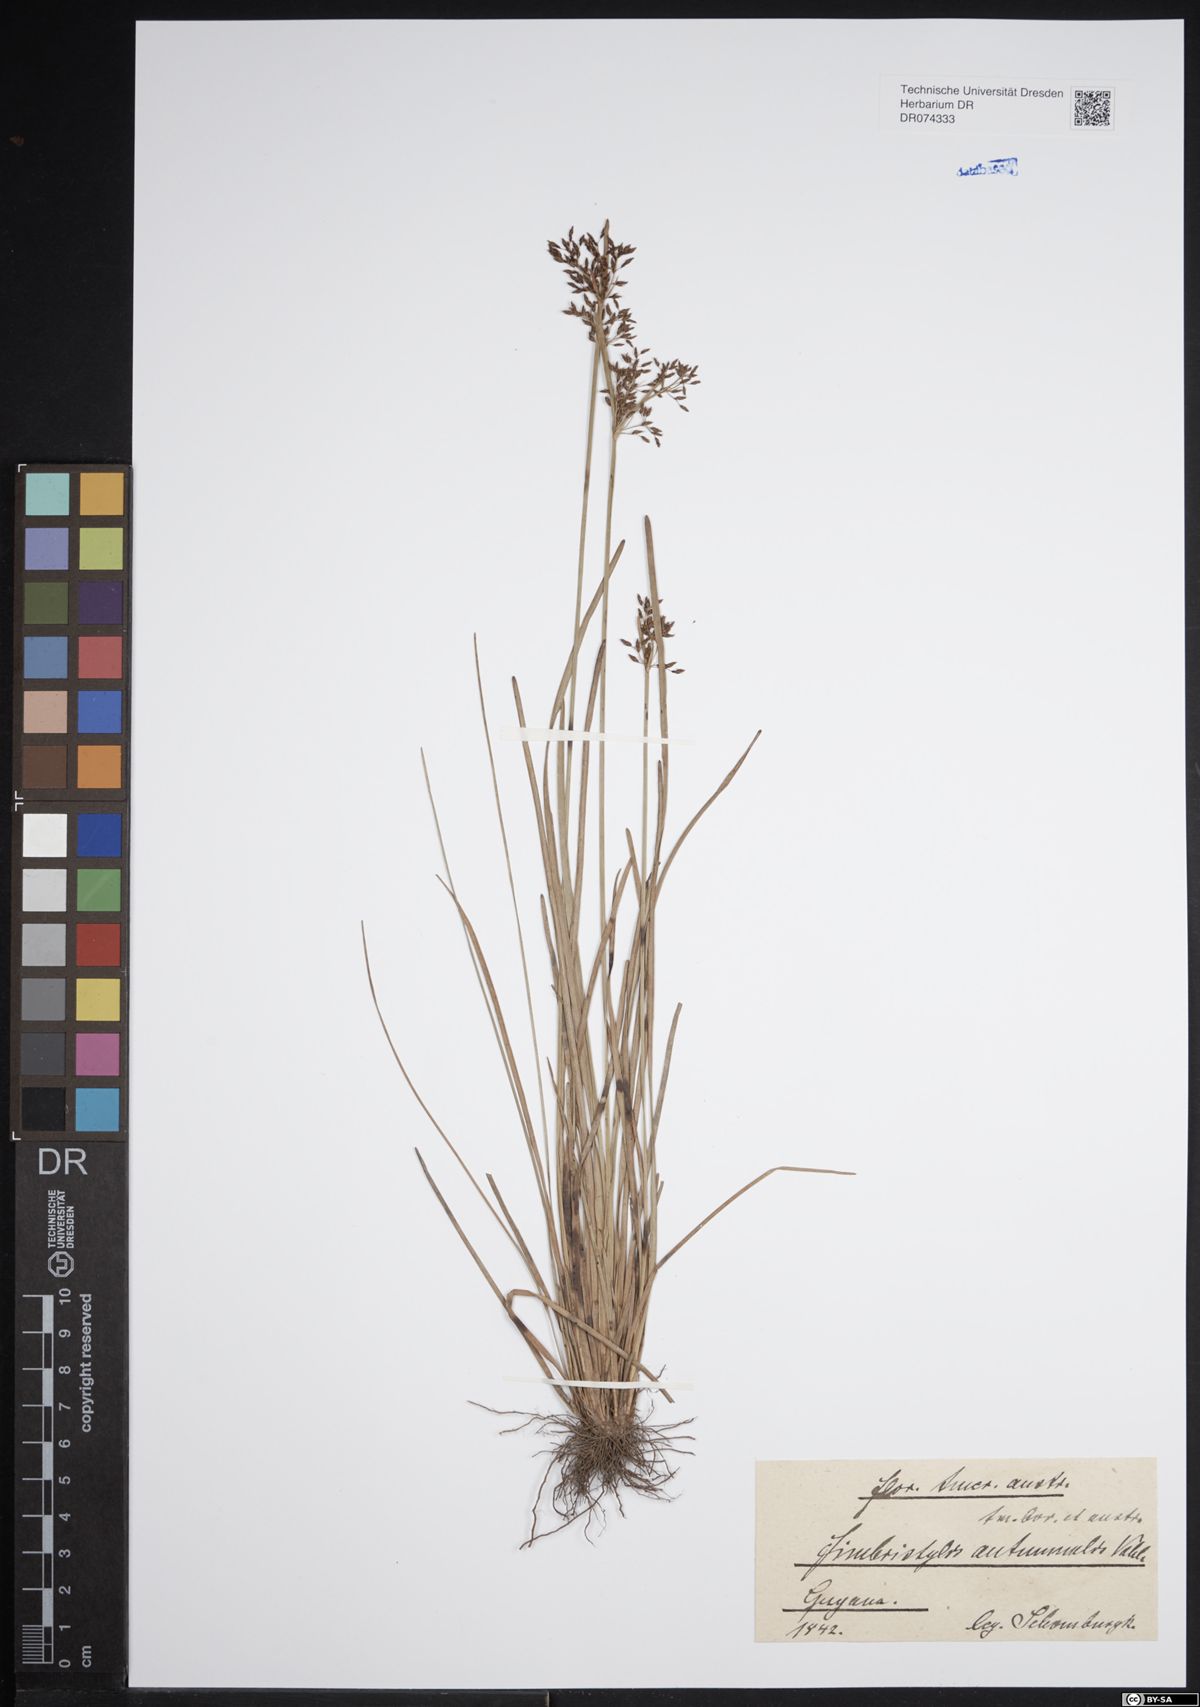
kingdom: Plantae
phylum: Tracheophyta
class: Liliopsida
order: Poales
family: Cyperaceae
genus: Fimbristylis
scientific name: Fimbristylis autumnalis
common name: Slender fimbristylis
